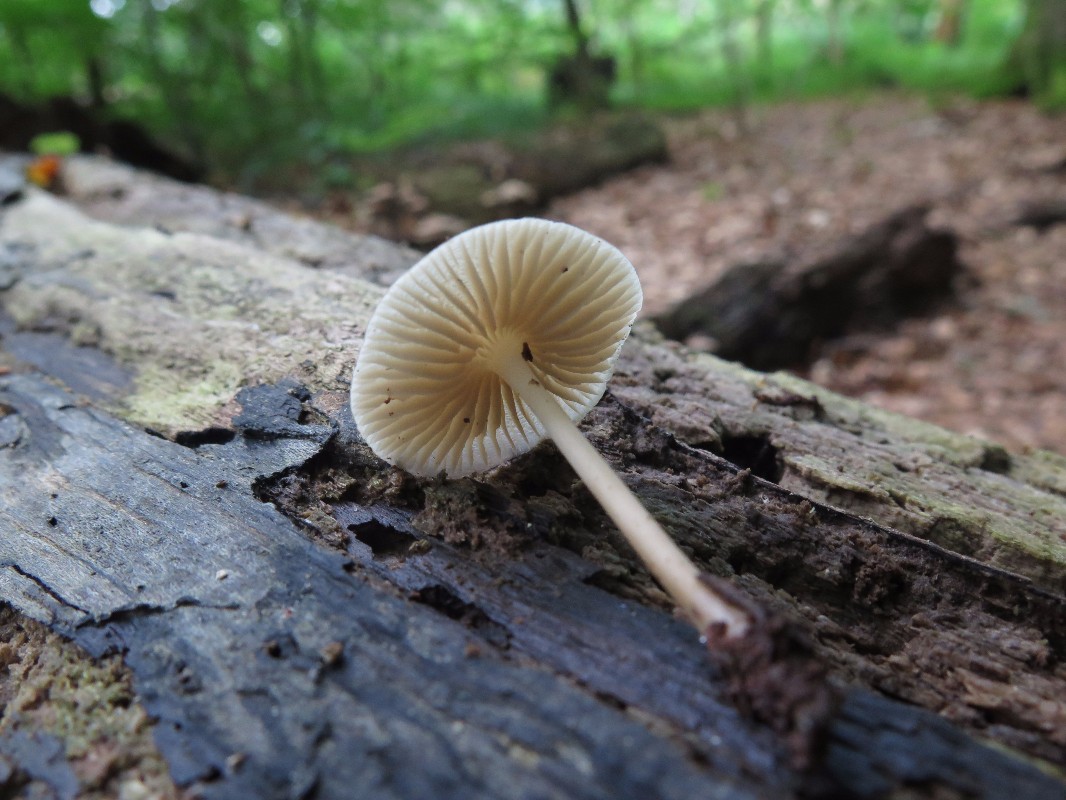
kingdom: Fungi
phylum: Basidiomycota
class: Agaricomycetes
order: Agaricales
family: Mycenaceae
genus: Mycena
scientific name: Mycena galericulata
